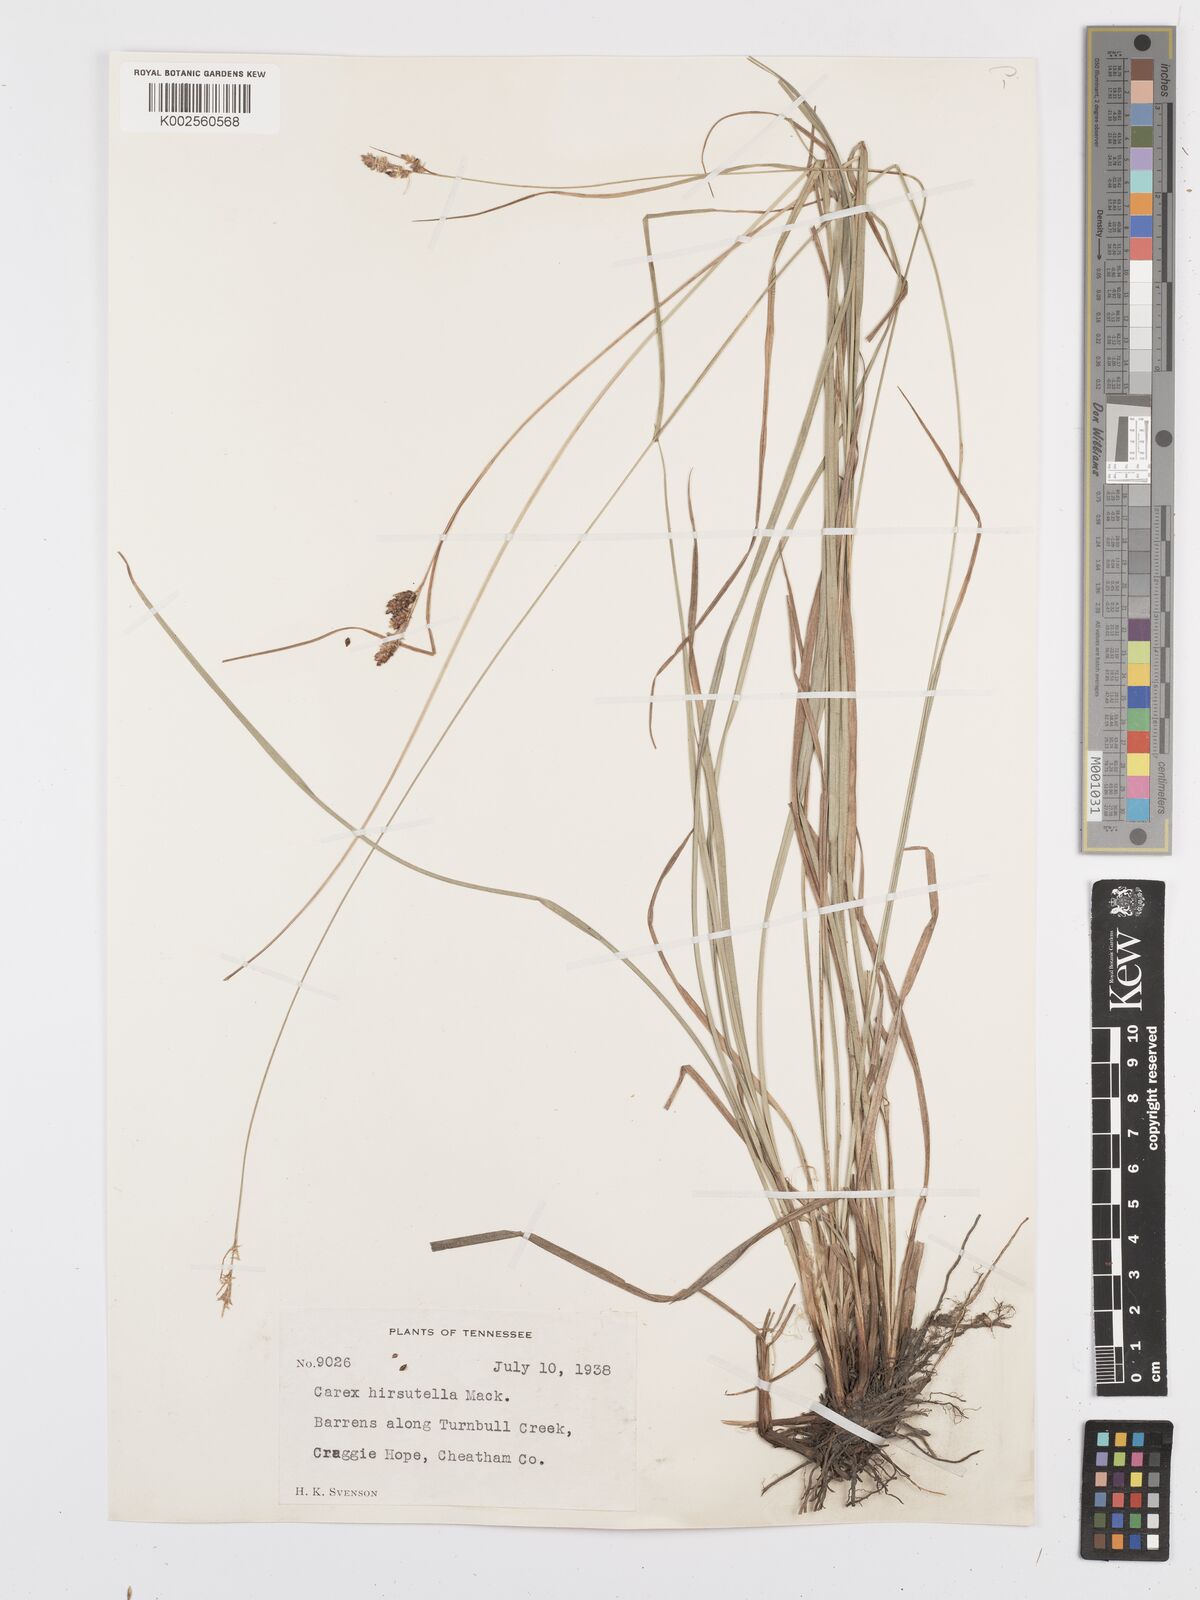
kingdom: Plantae
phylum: Tracheophyta
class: Liliopsida
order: Poales
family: Cyperaceae
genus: Carex
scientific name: Carex complanata
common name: Hirsute sedge
